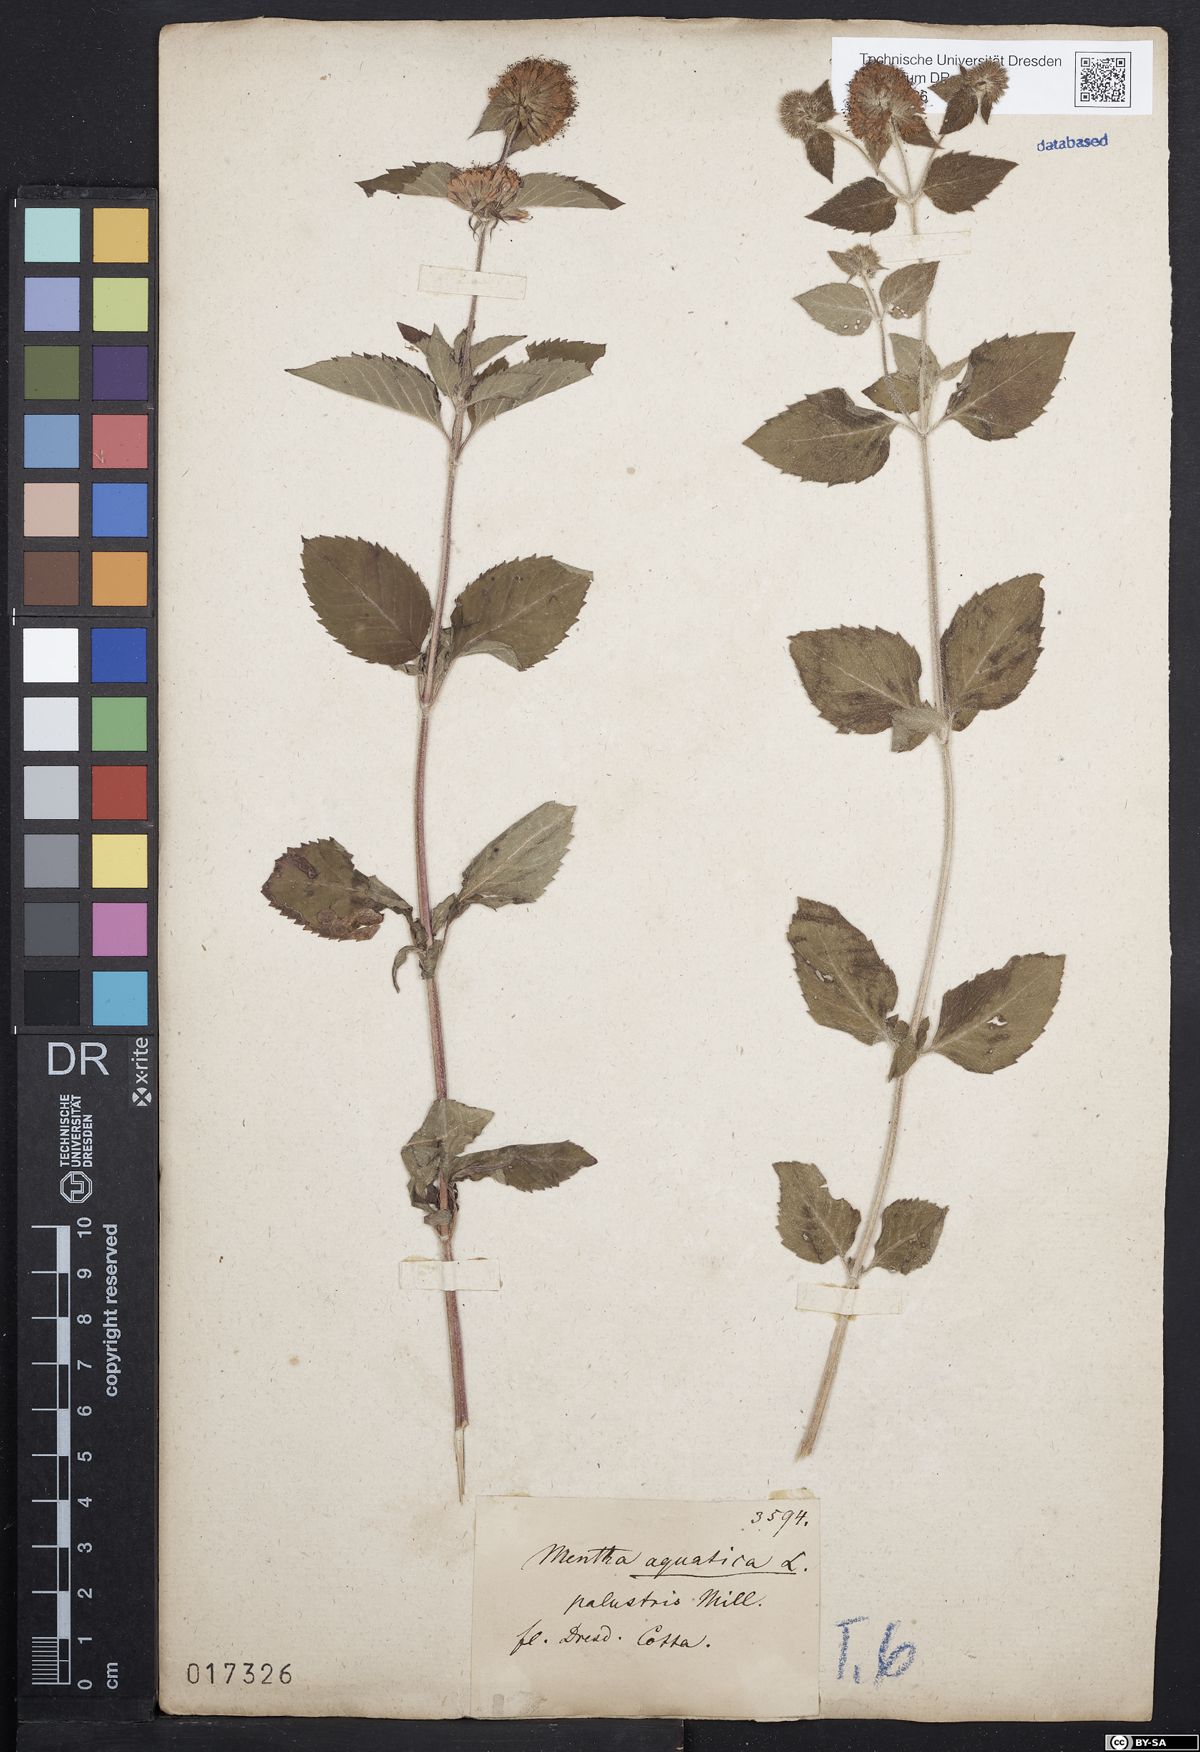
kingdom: Plantae
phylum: Tracheophyta
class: Magnoliopsida
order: Lamiales
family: Lamiaceae
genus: Mentha
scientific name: Mentha aquatica
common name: Water mint
